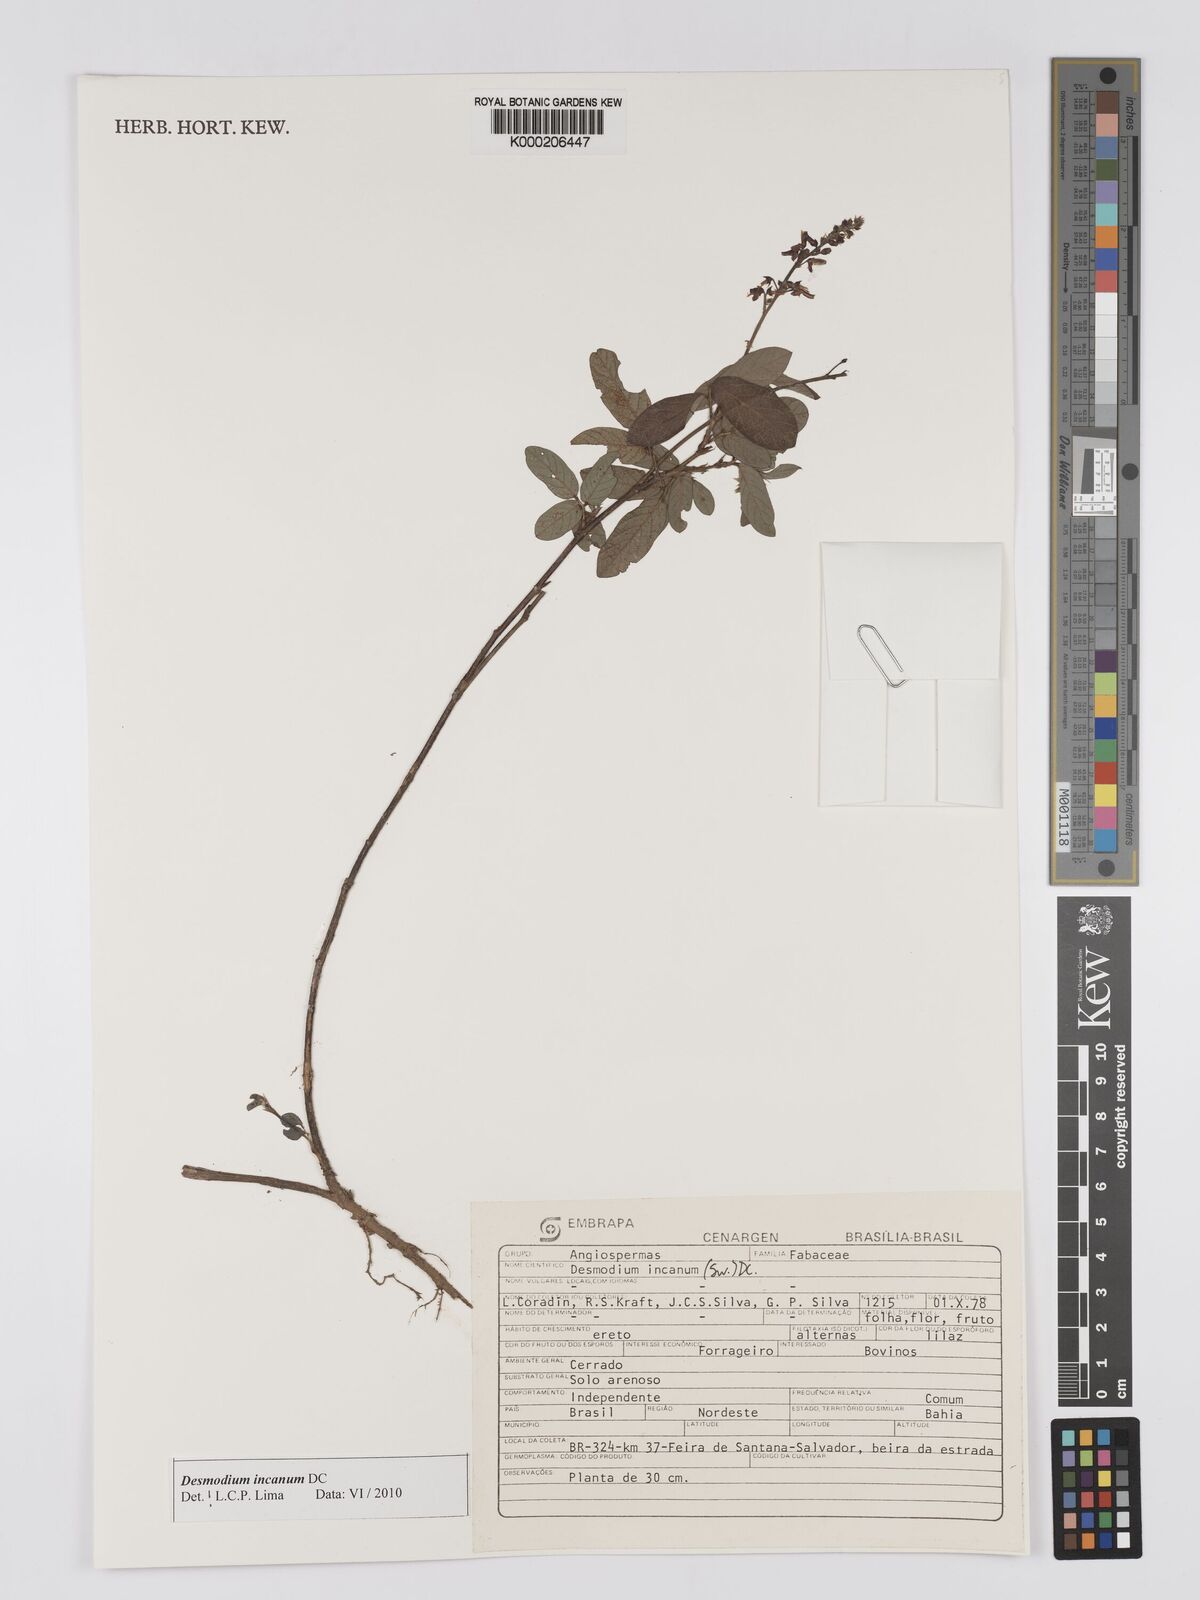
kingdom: Plantae
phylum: Tracheophyta
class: Magnoliopsida
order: Fabales
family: Fabaceae
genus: Desmodium
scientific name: Desmodium incanum
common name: Tickclover
